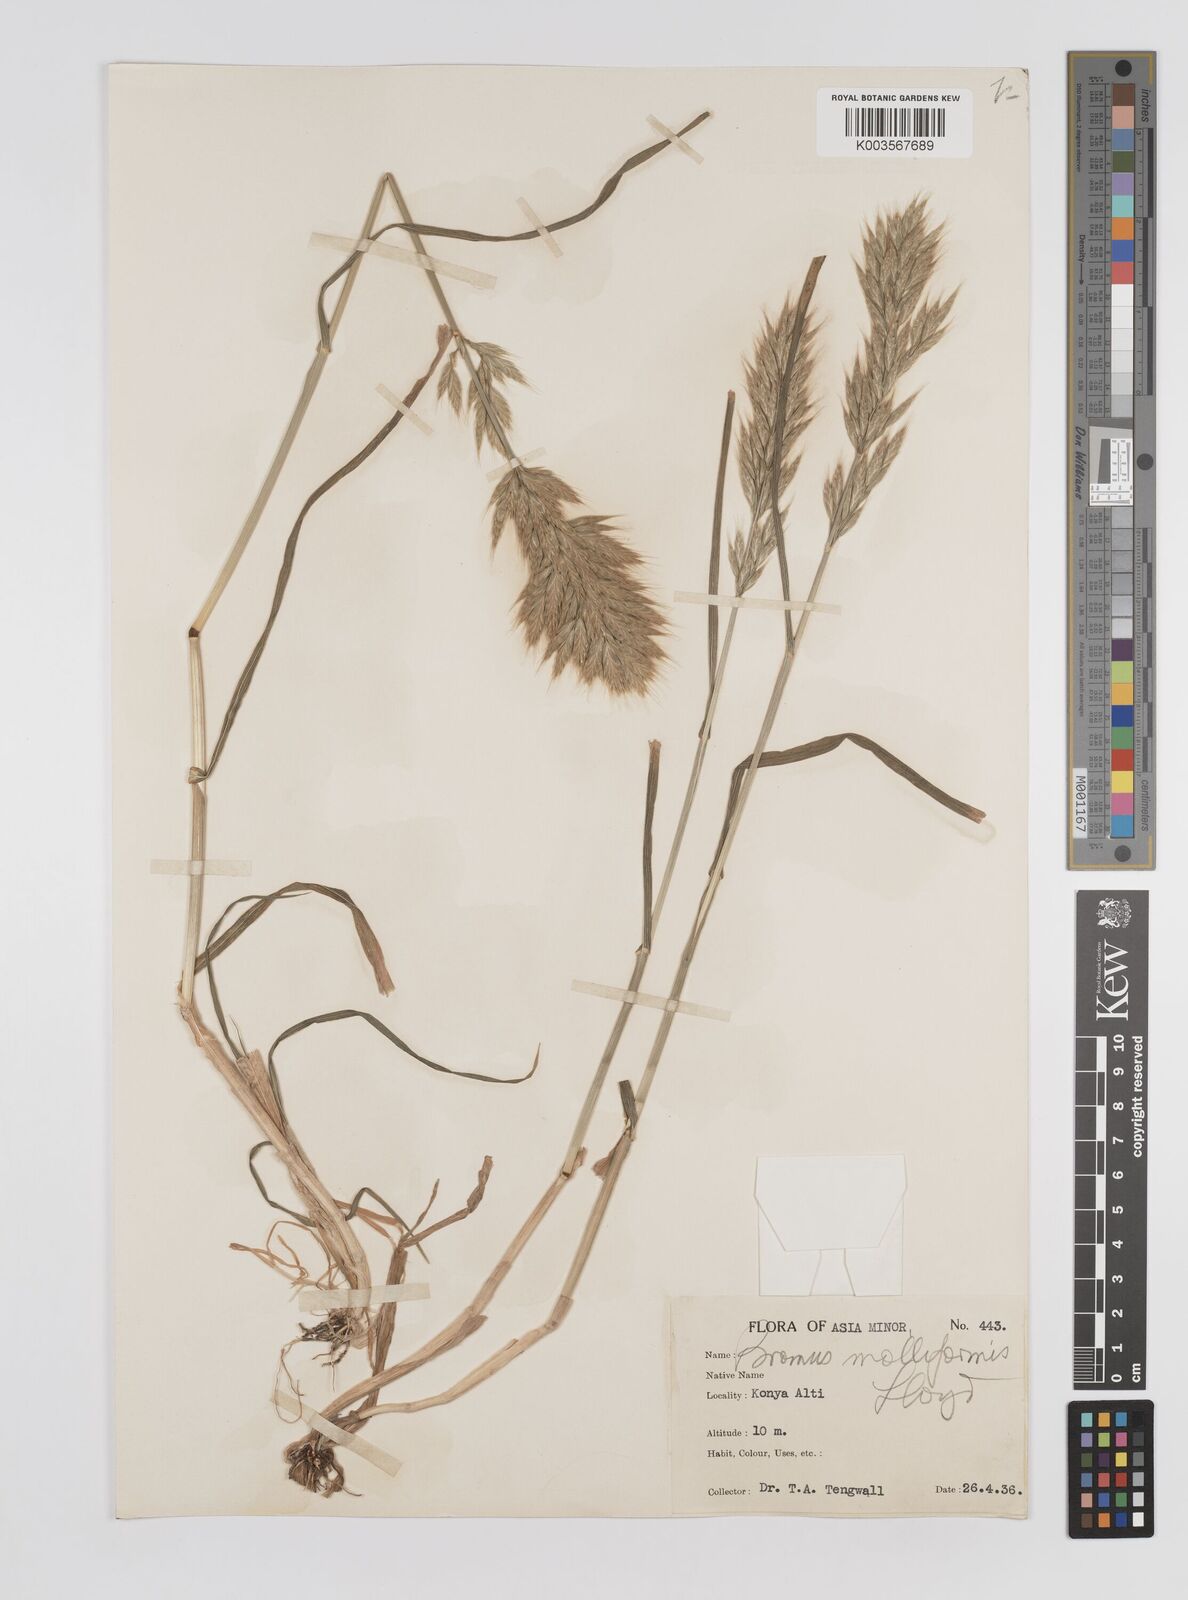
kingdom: Plantae
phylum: Tracheophyta
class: Liliopsida
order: Poales
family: Poaceae
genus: Bromus
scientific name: Bromus
